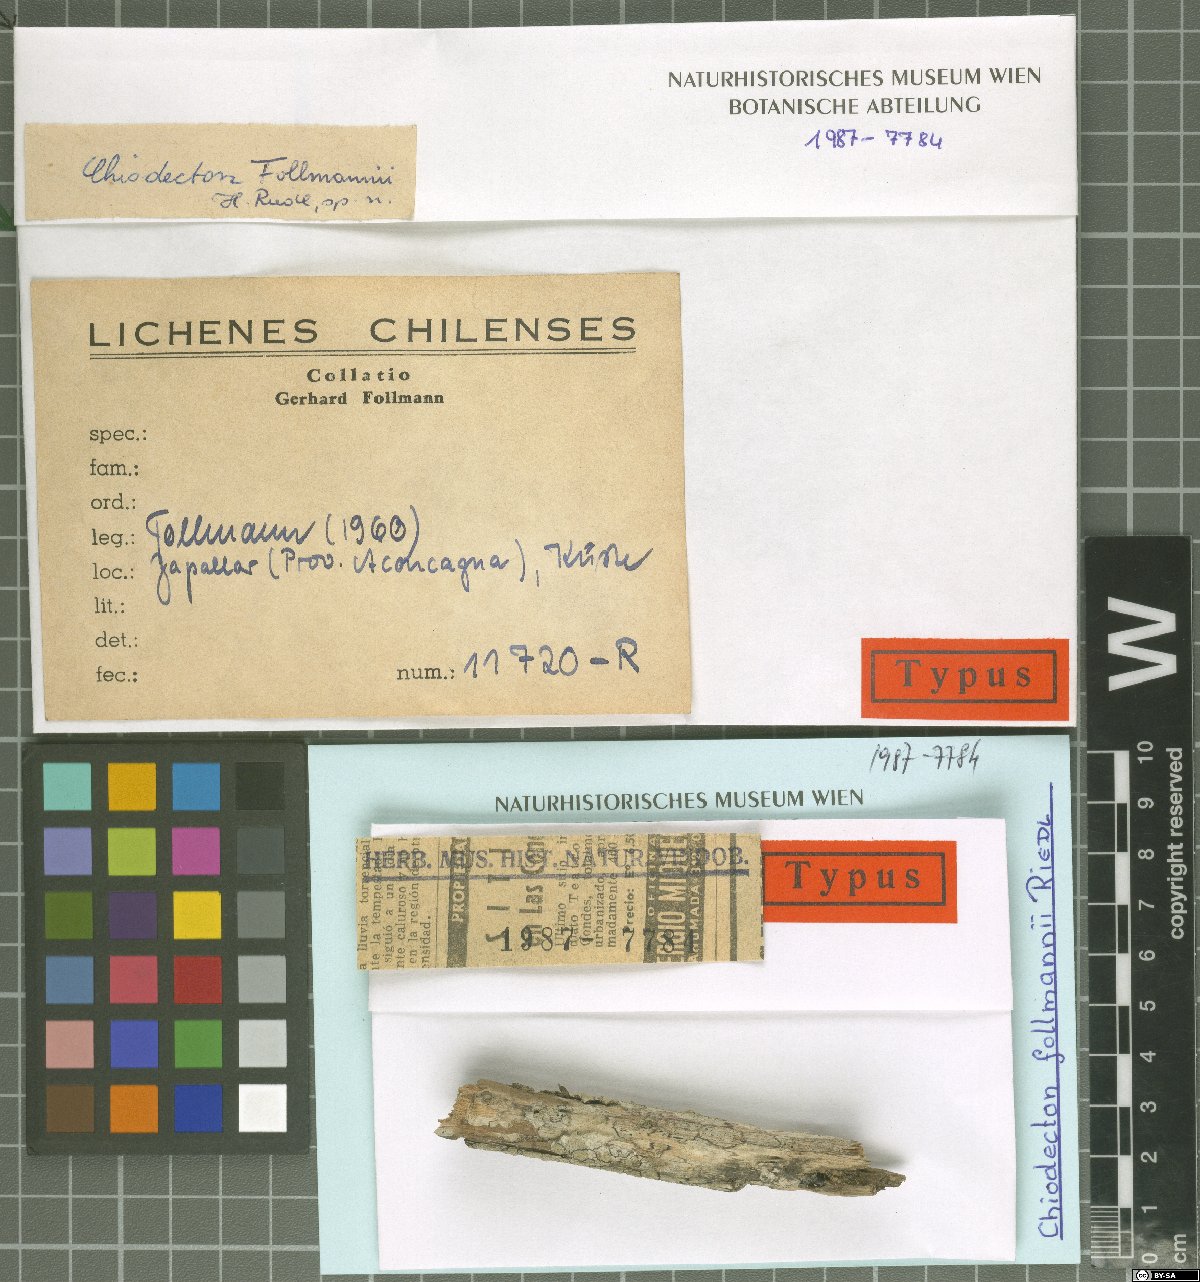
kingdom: Fungi
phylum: Ascomycota
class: Arthoniomycetes
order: Arthoniales
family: Roccellaceae
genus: Chiodecton
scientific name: Chiodecton
